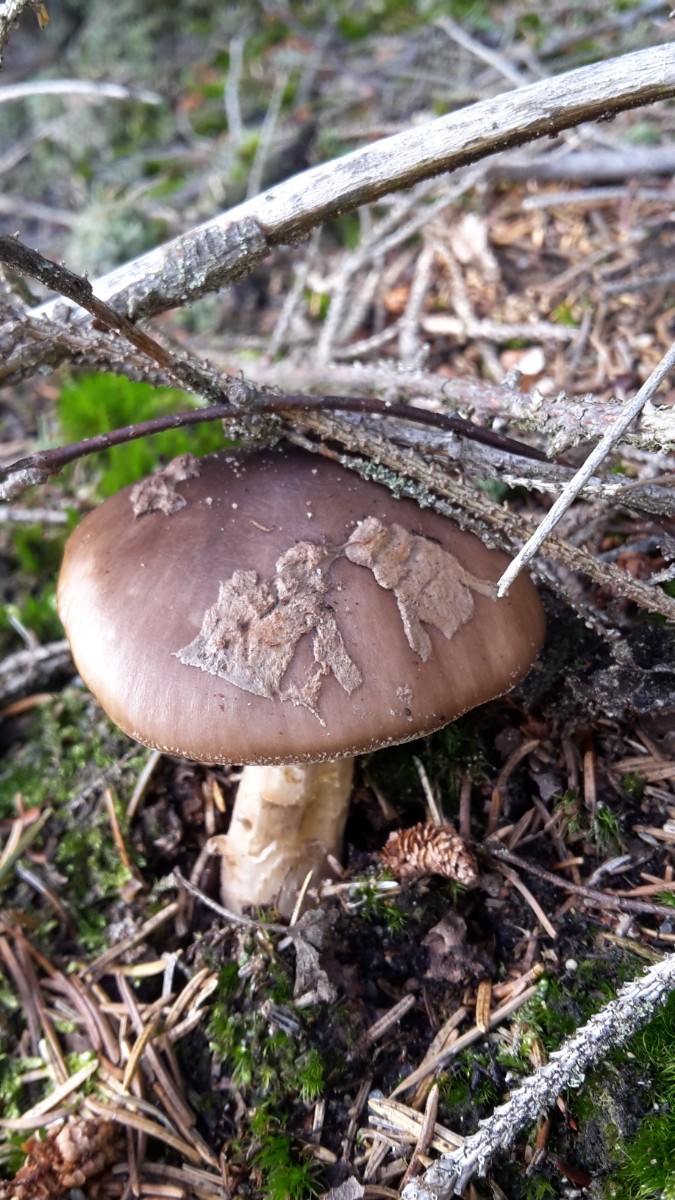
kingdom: Fungi
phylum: Basidiomycota
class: Agaricomycetes
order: Agaricales
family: Amanitaceae
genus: Amanita
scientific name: Amanita porphyria
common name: porfyr-fluesvamp
